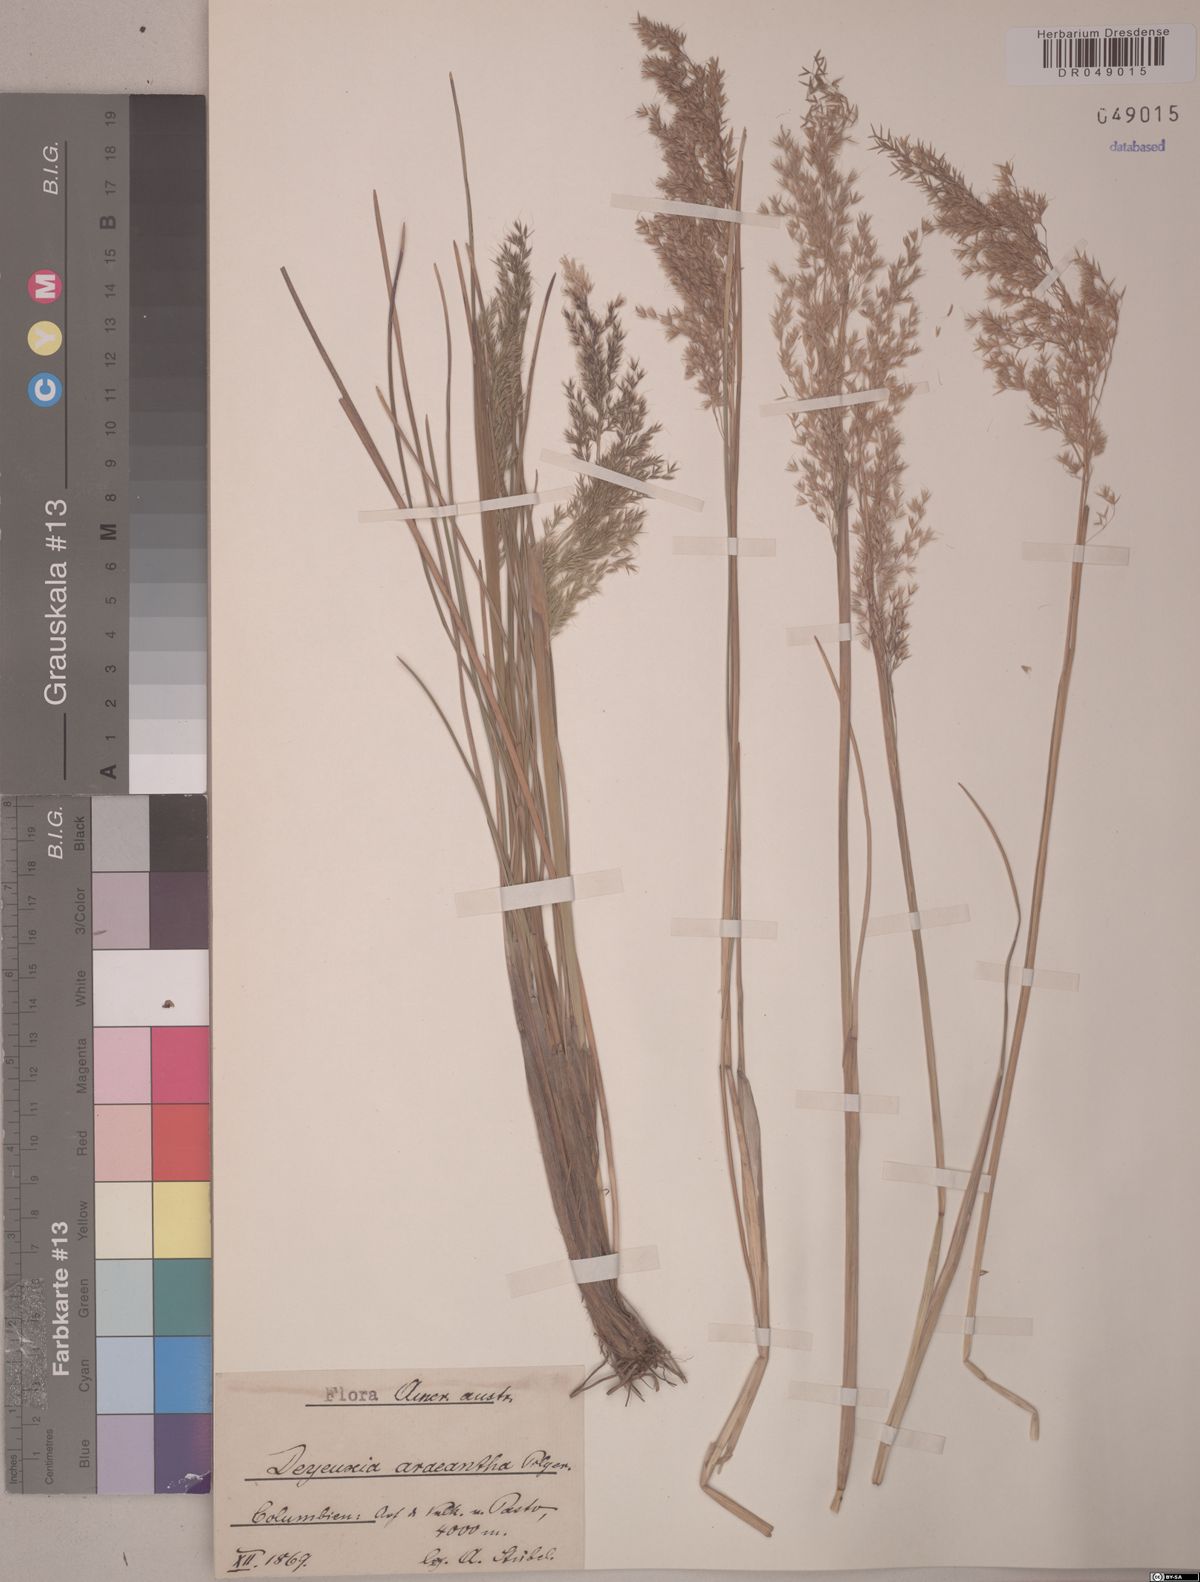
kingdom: Plantae
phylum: Tracheophyta
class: Liliopsida
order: Poales
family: Poaceae
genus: Paramochloa
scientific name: Paramochloa effusa
